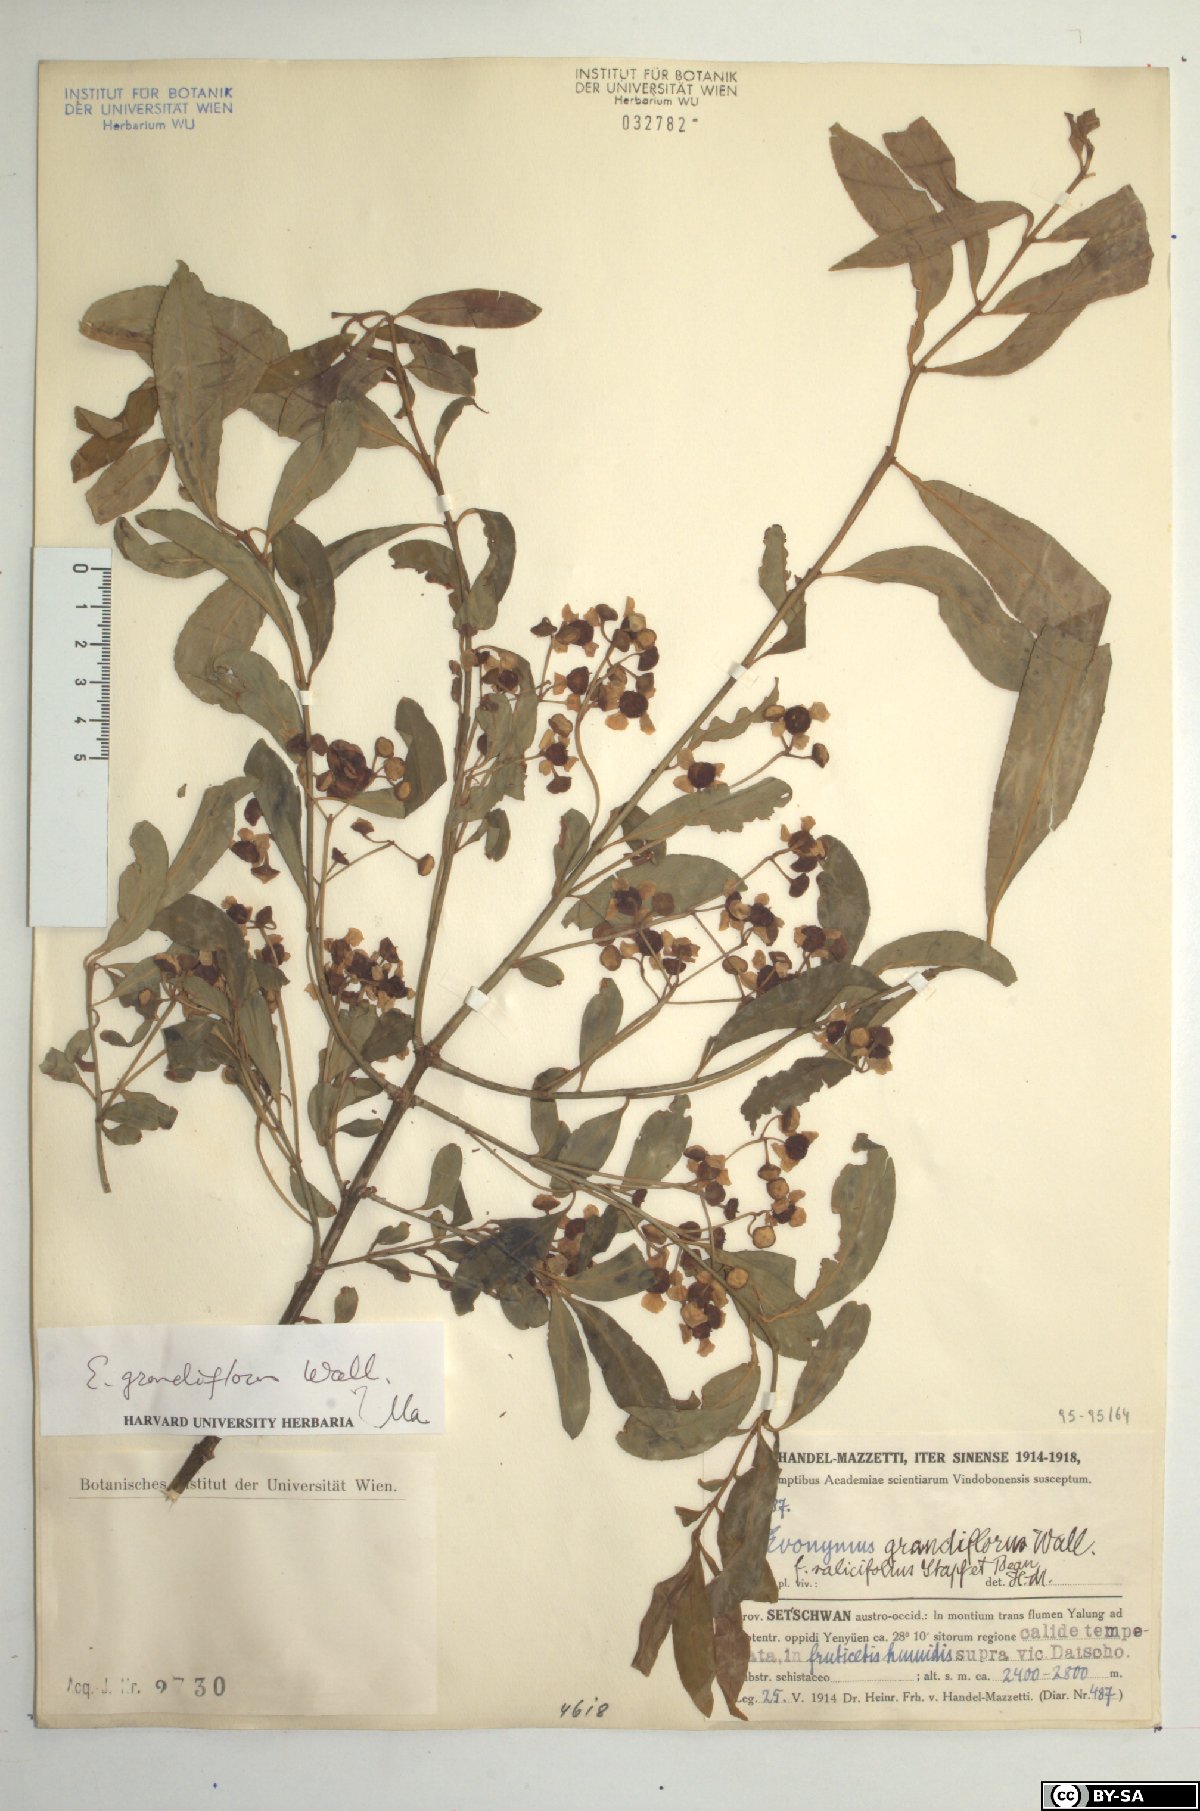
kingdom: Plantae
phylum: Tracheophyta
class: Magnoliopsida
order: Celastrales
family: Celastraceae
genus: Euonymus
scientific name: Euonymus grandiflorus
